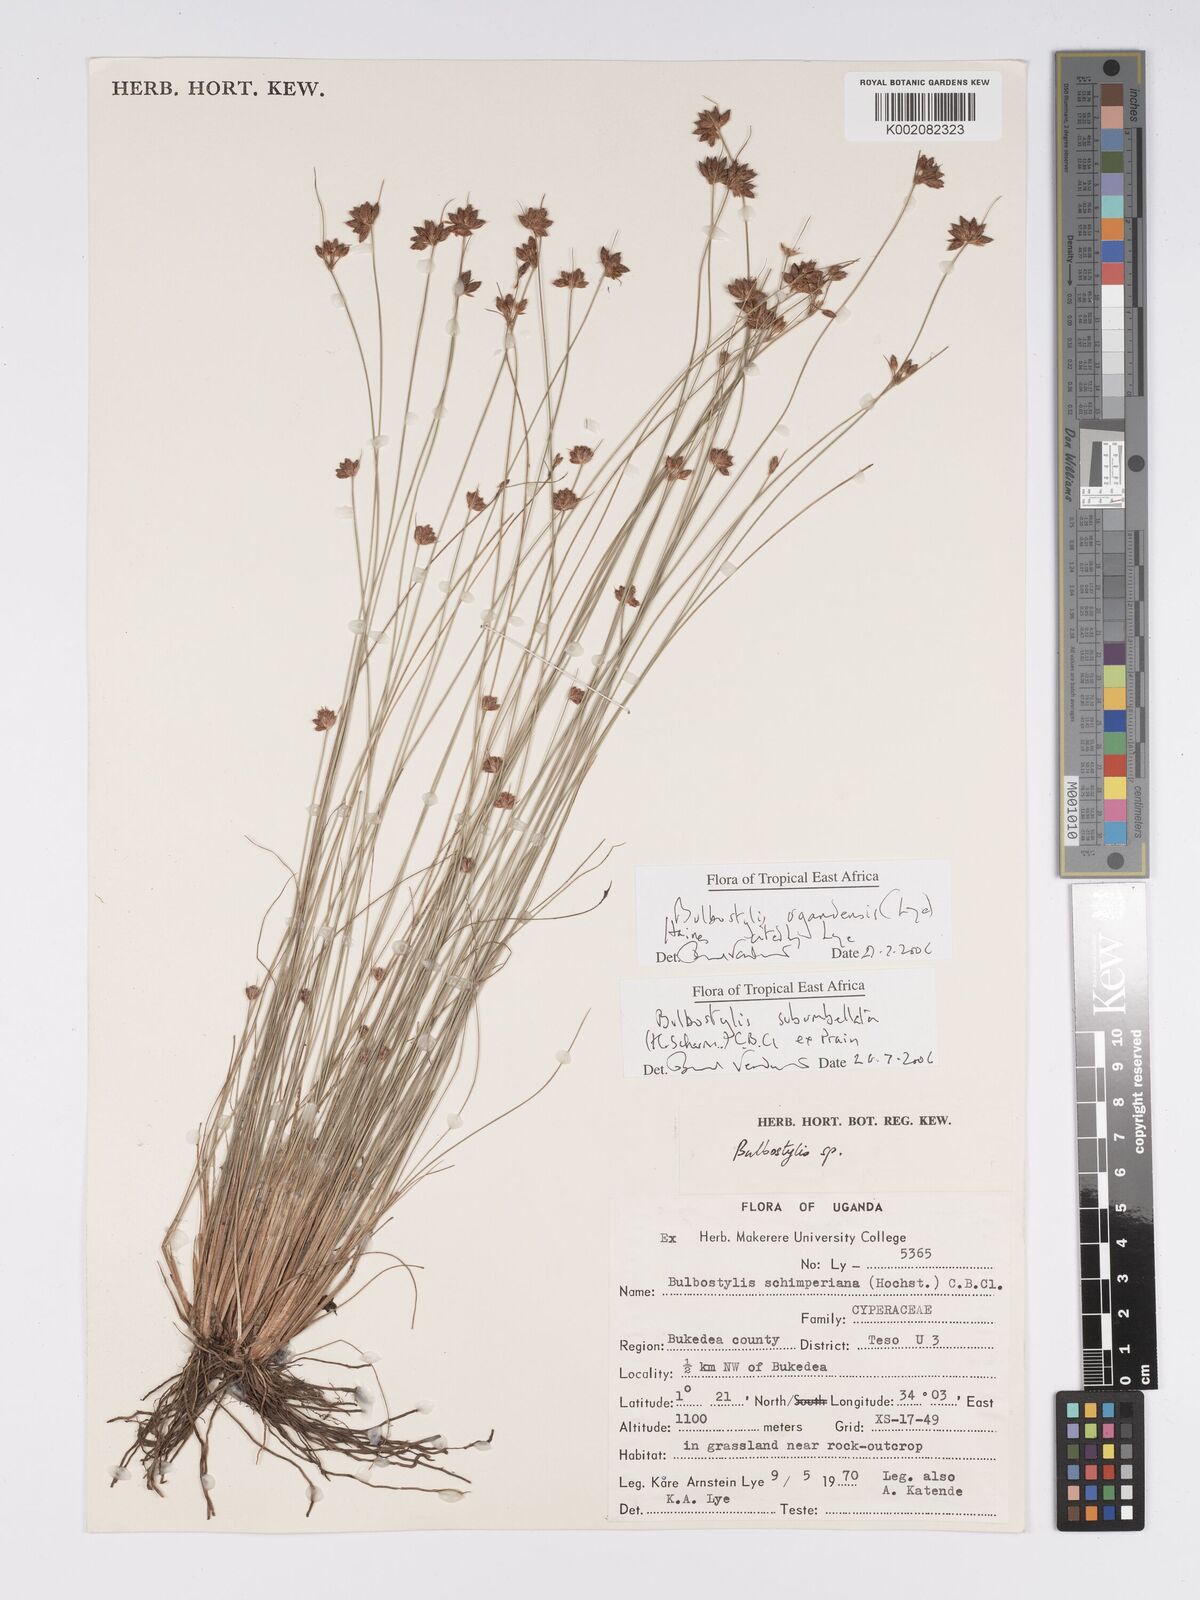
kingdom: Plantae
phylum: Tracheophyta
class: Liliopsida
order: Poales
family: Cyperaceae
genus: Bulbostylis
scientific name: Bulbostylis ugandensis
